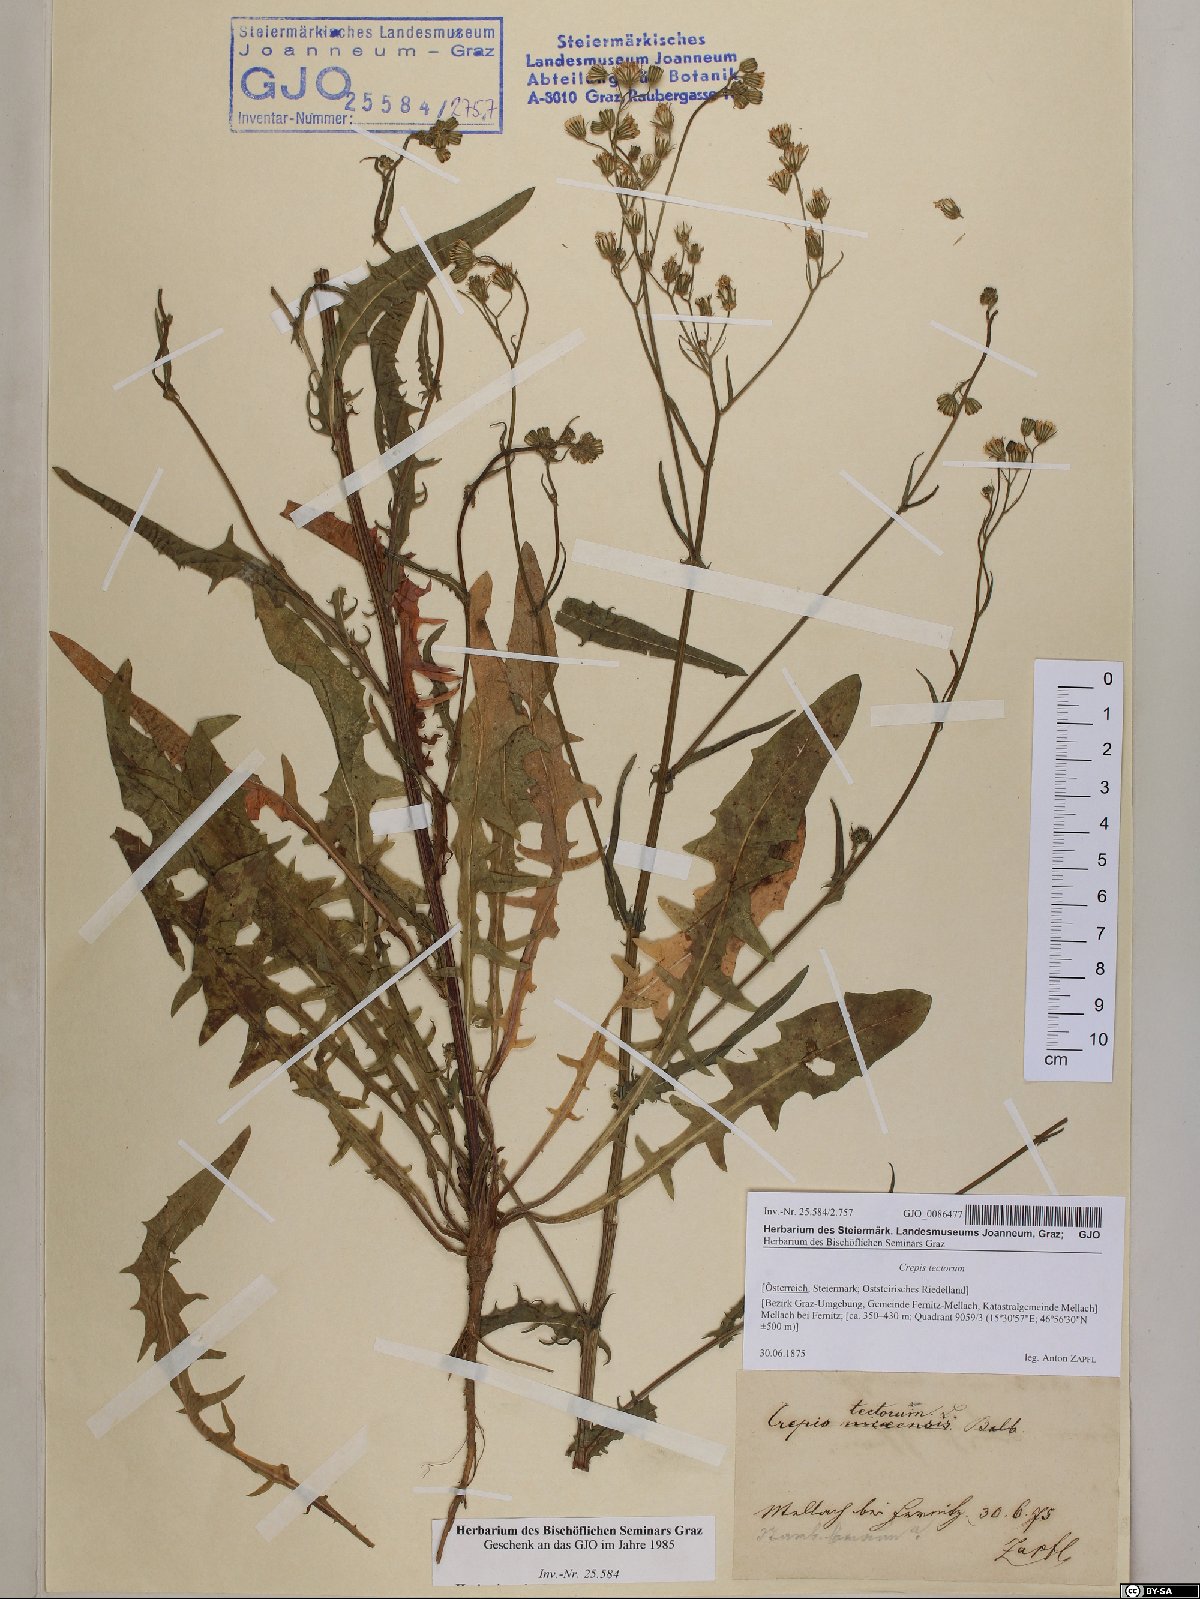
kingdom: Plantae
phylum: Tracheophyta
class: Magnoliopsida
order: Asterales
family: Asteraceae
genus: Crepis
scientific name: Crepis tectorum
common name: Narrow-leaved hawk's-beard
